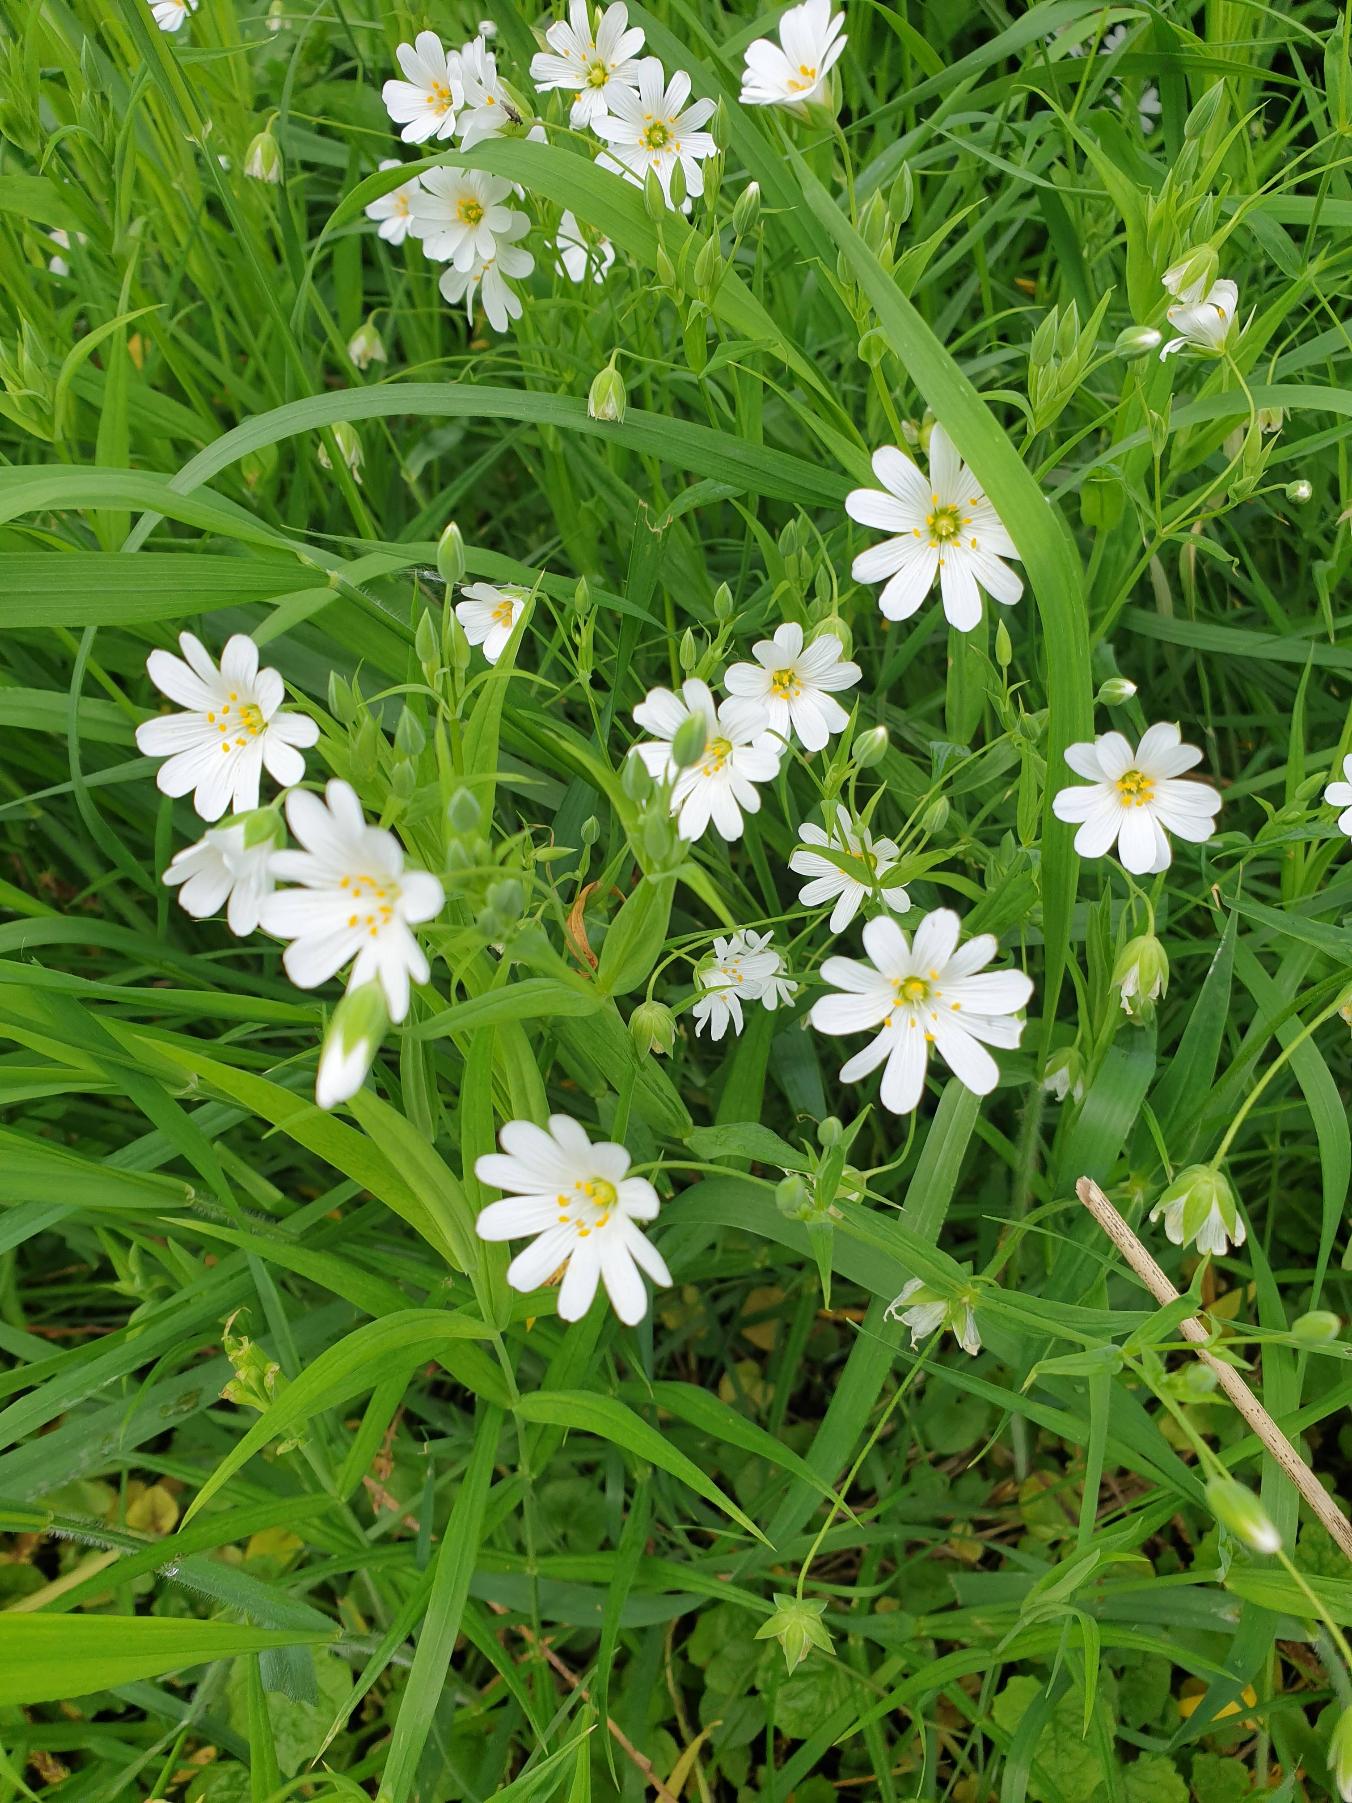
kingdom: Plantae
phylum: Tracheophyta
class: Magnoliopsida
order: Caryophyllales
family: Caryophyllaceae
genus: Rabelera
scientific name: Rabelera holostea
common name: Stor fladstjerne
